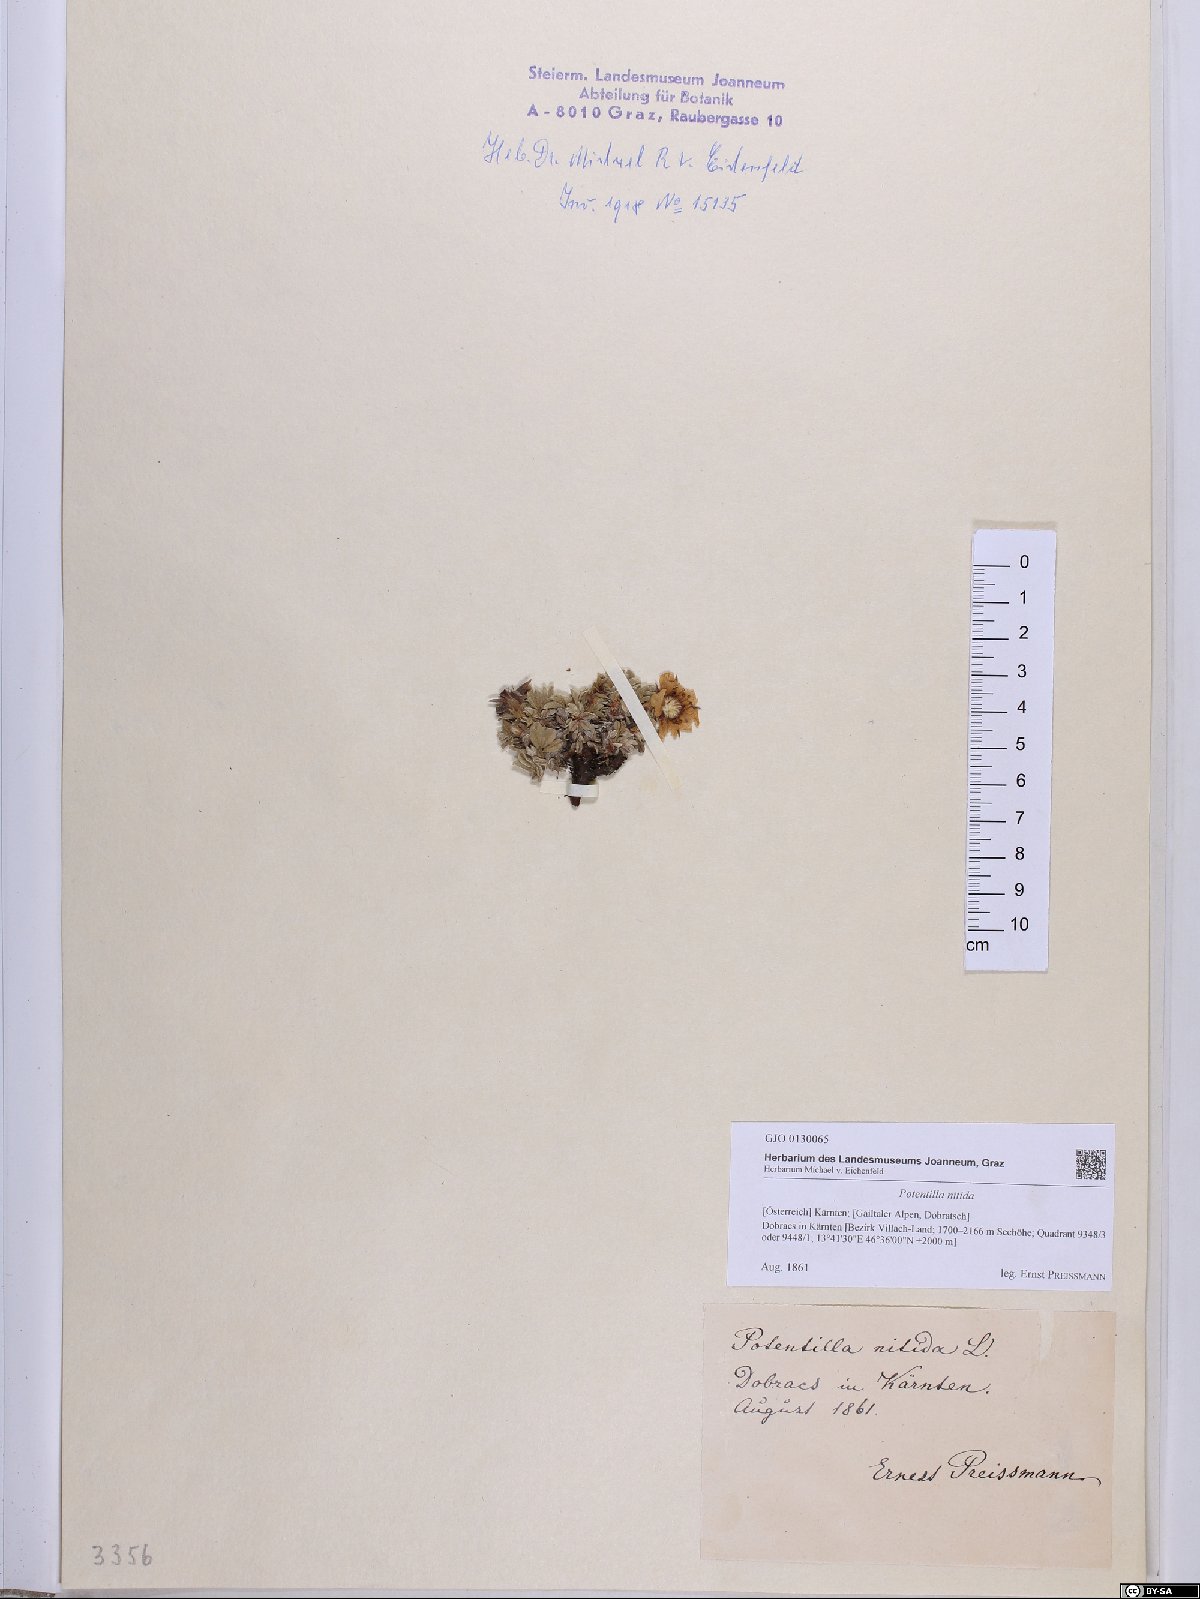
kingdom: Plantae
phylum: Tracheophyta
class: Magnoliopsida
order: Rosales
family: Rosaceae
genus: Potentilla
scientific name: Potentilla nitida
